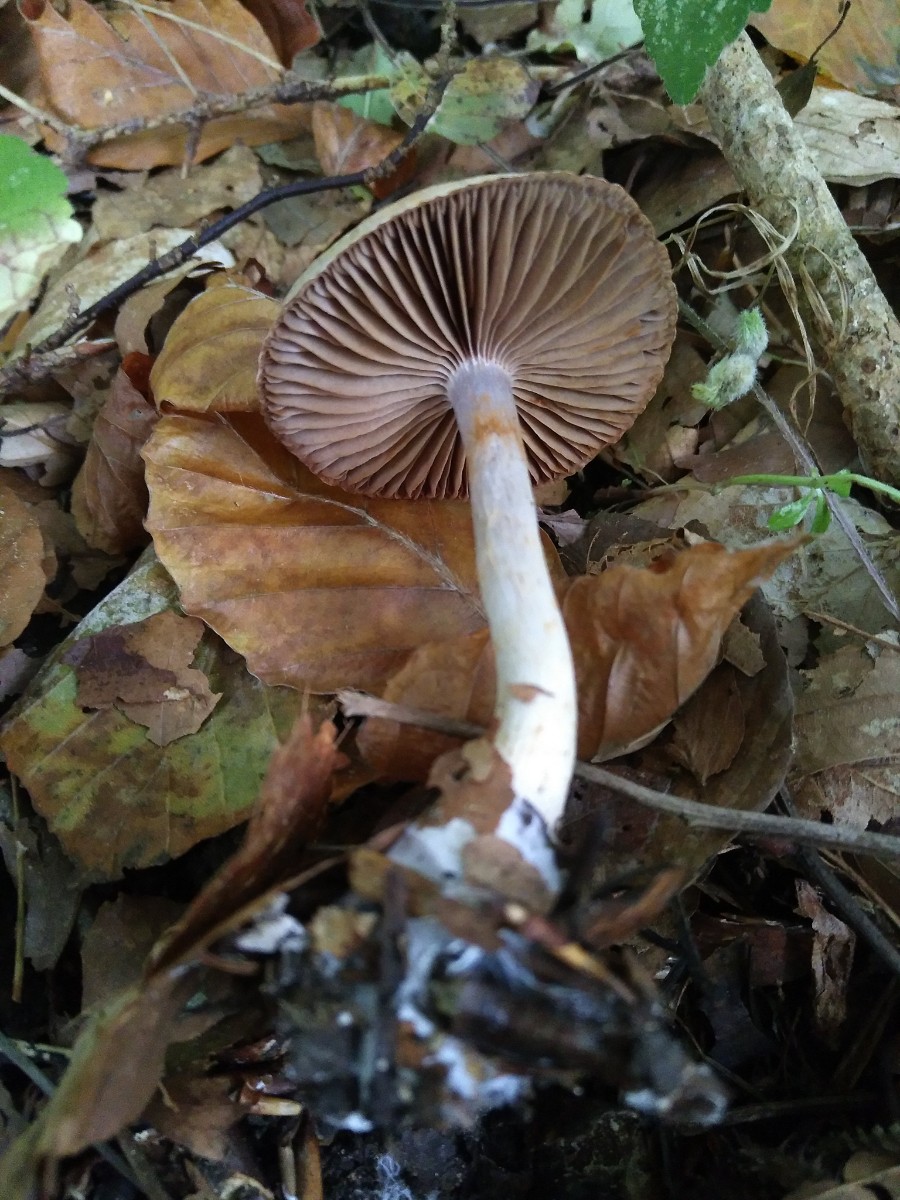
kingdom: Fungi
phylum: Basidiomycota
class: Agaricomycetes
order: Agaricales
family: Cortinariaceae
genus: Cortinarius
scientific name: Cortinarius
